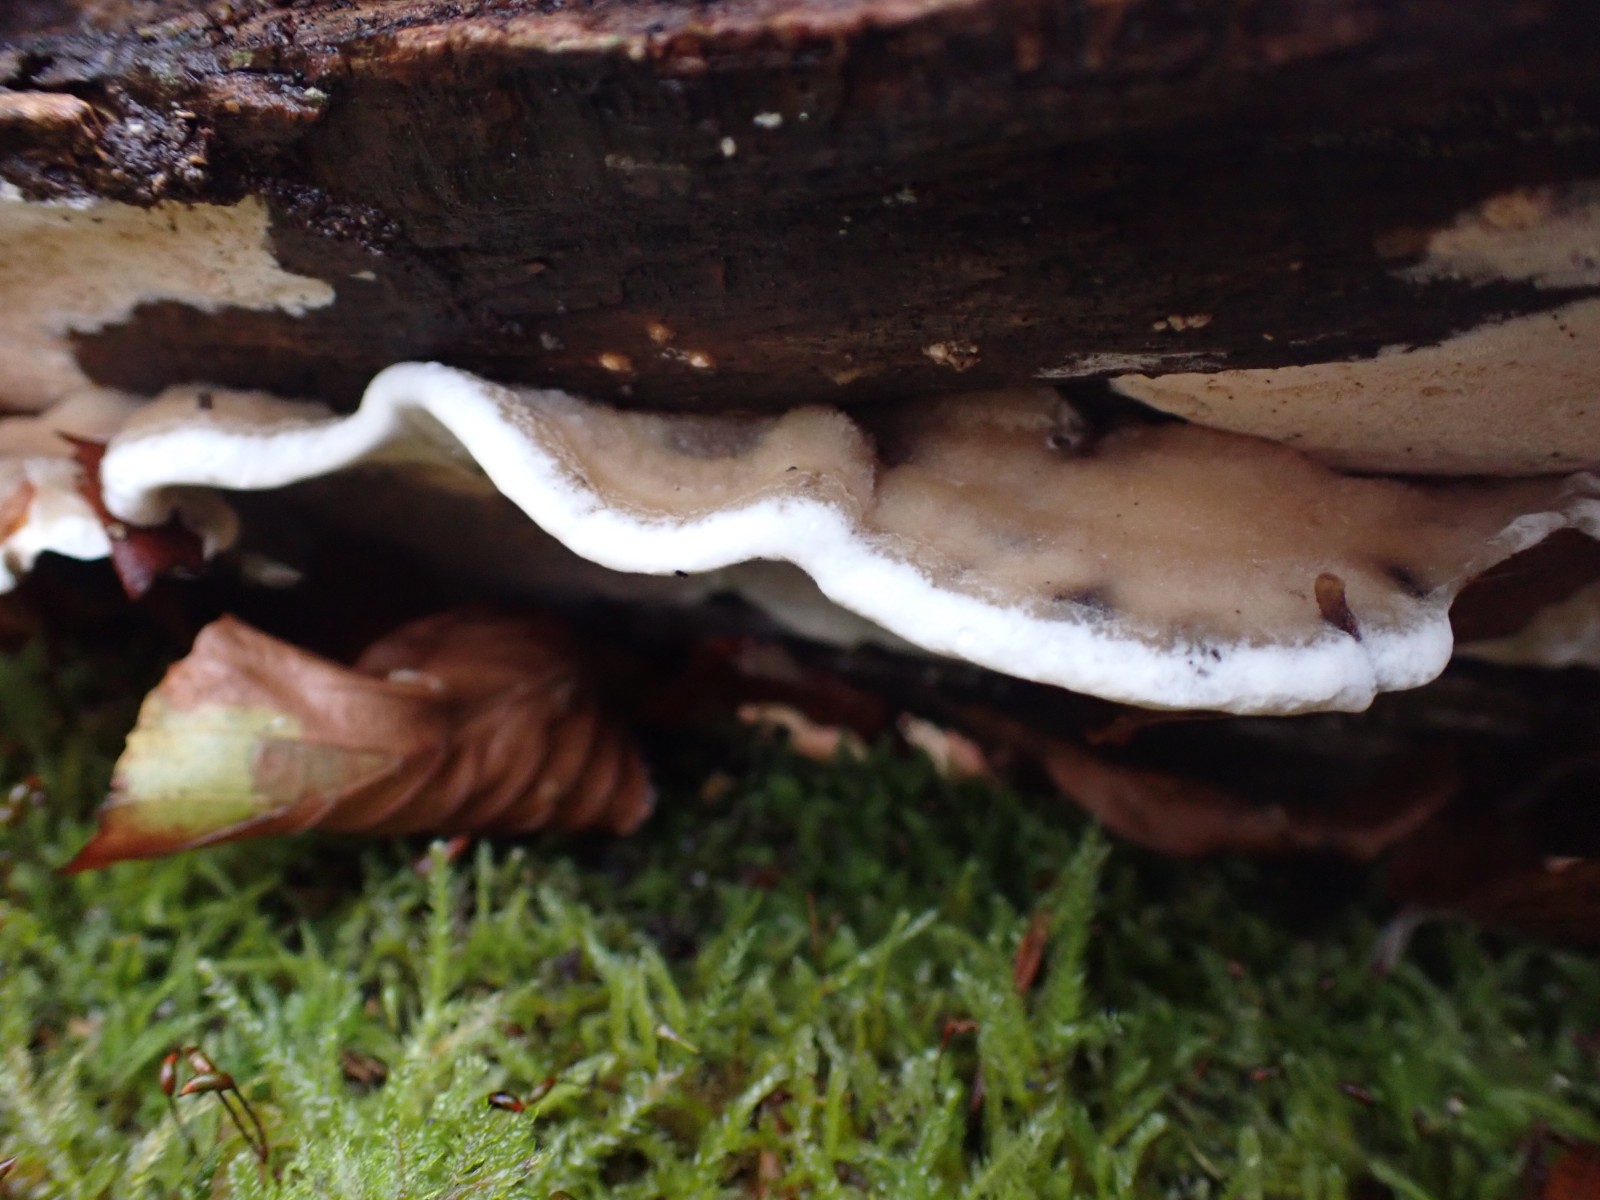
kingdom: Fungi
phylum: Basidiomycota
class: Agaricomycetes
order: Polyporales
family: Phanerochaetaceae
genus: Bjerkandera
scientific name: Bjerkandera adusta
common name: sveden sodporesvamp
